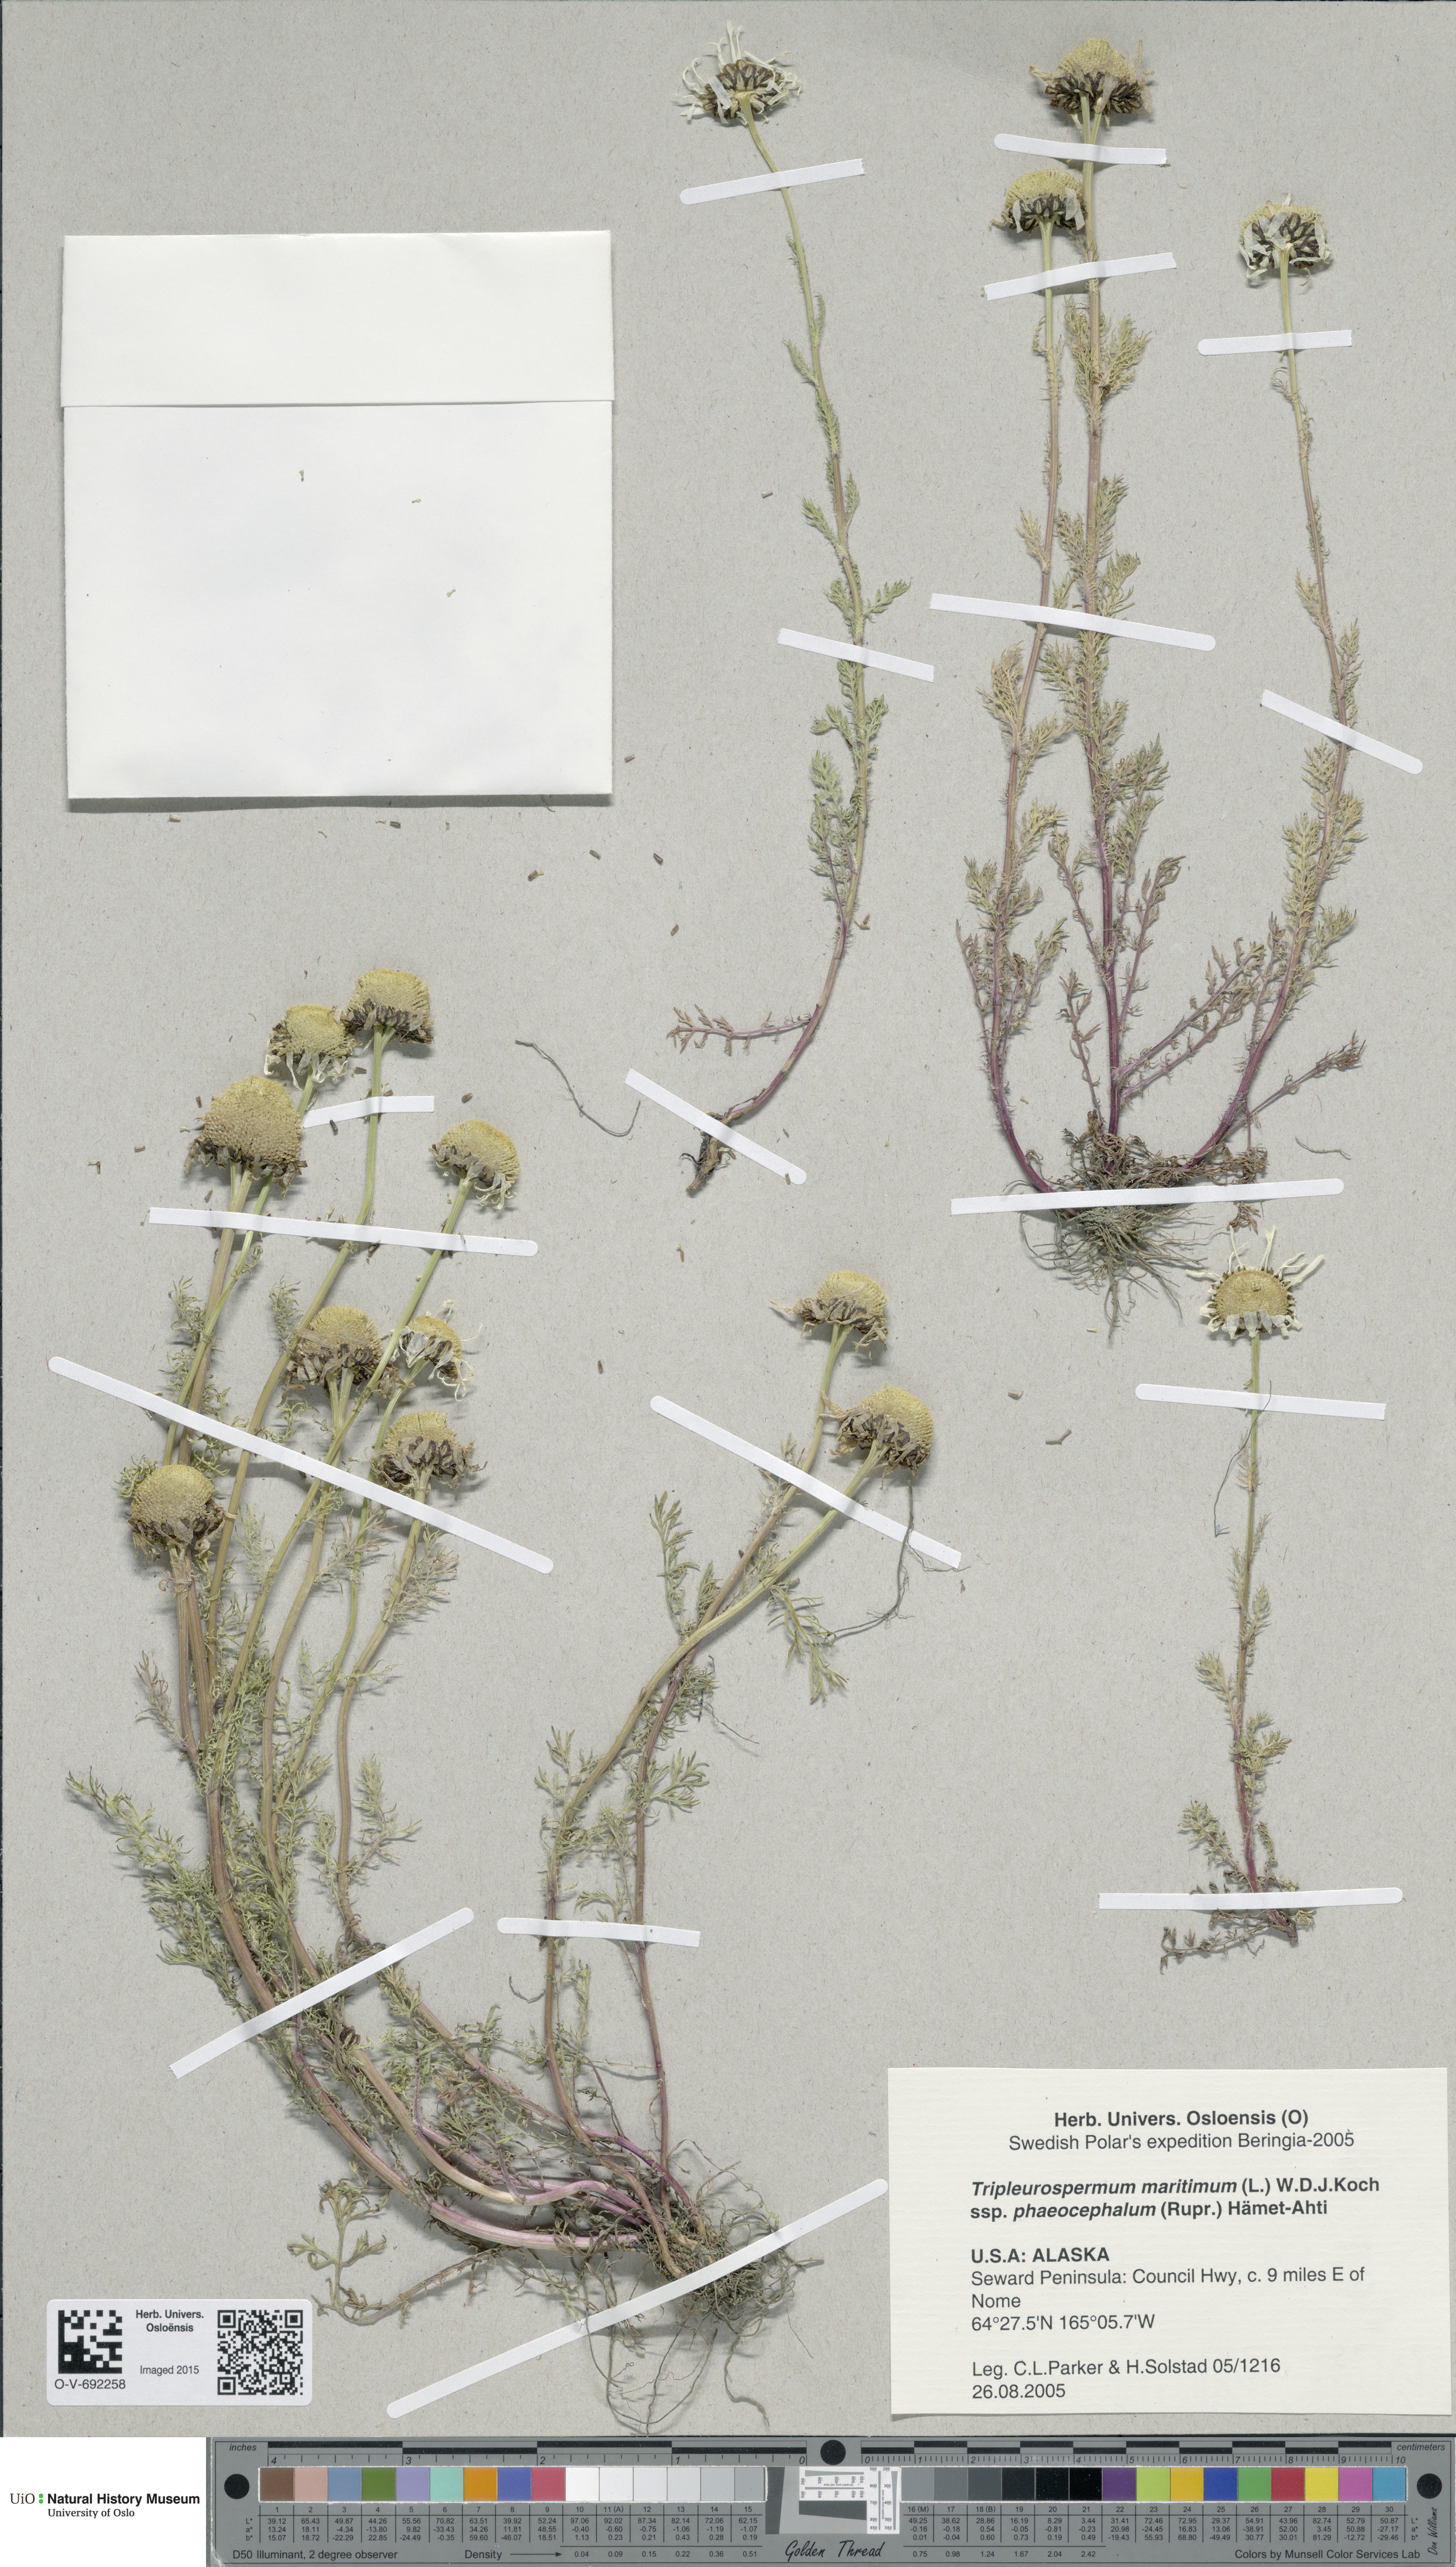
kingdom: Plantae
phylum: Tracheophyta
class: Magnoliopsida
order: Asterales
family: Asteraceae
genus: Tripleurospermum
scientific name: Tripleurospermum hookeri
